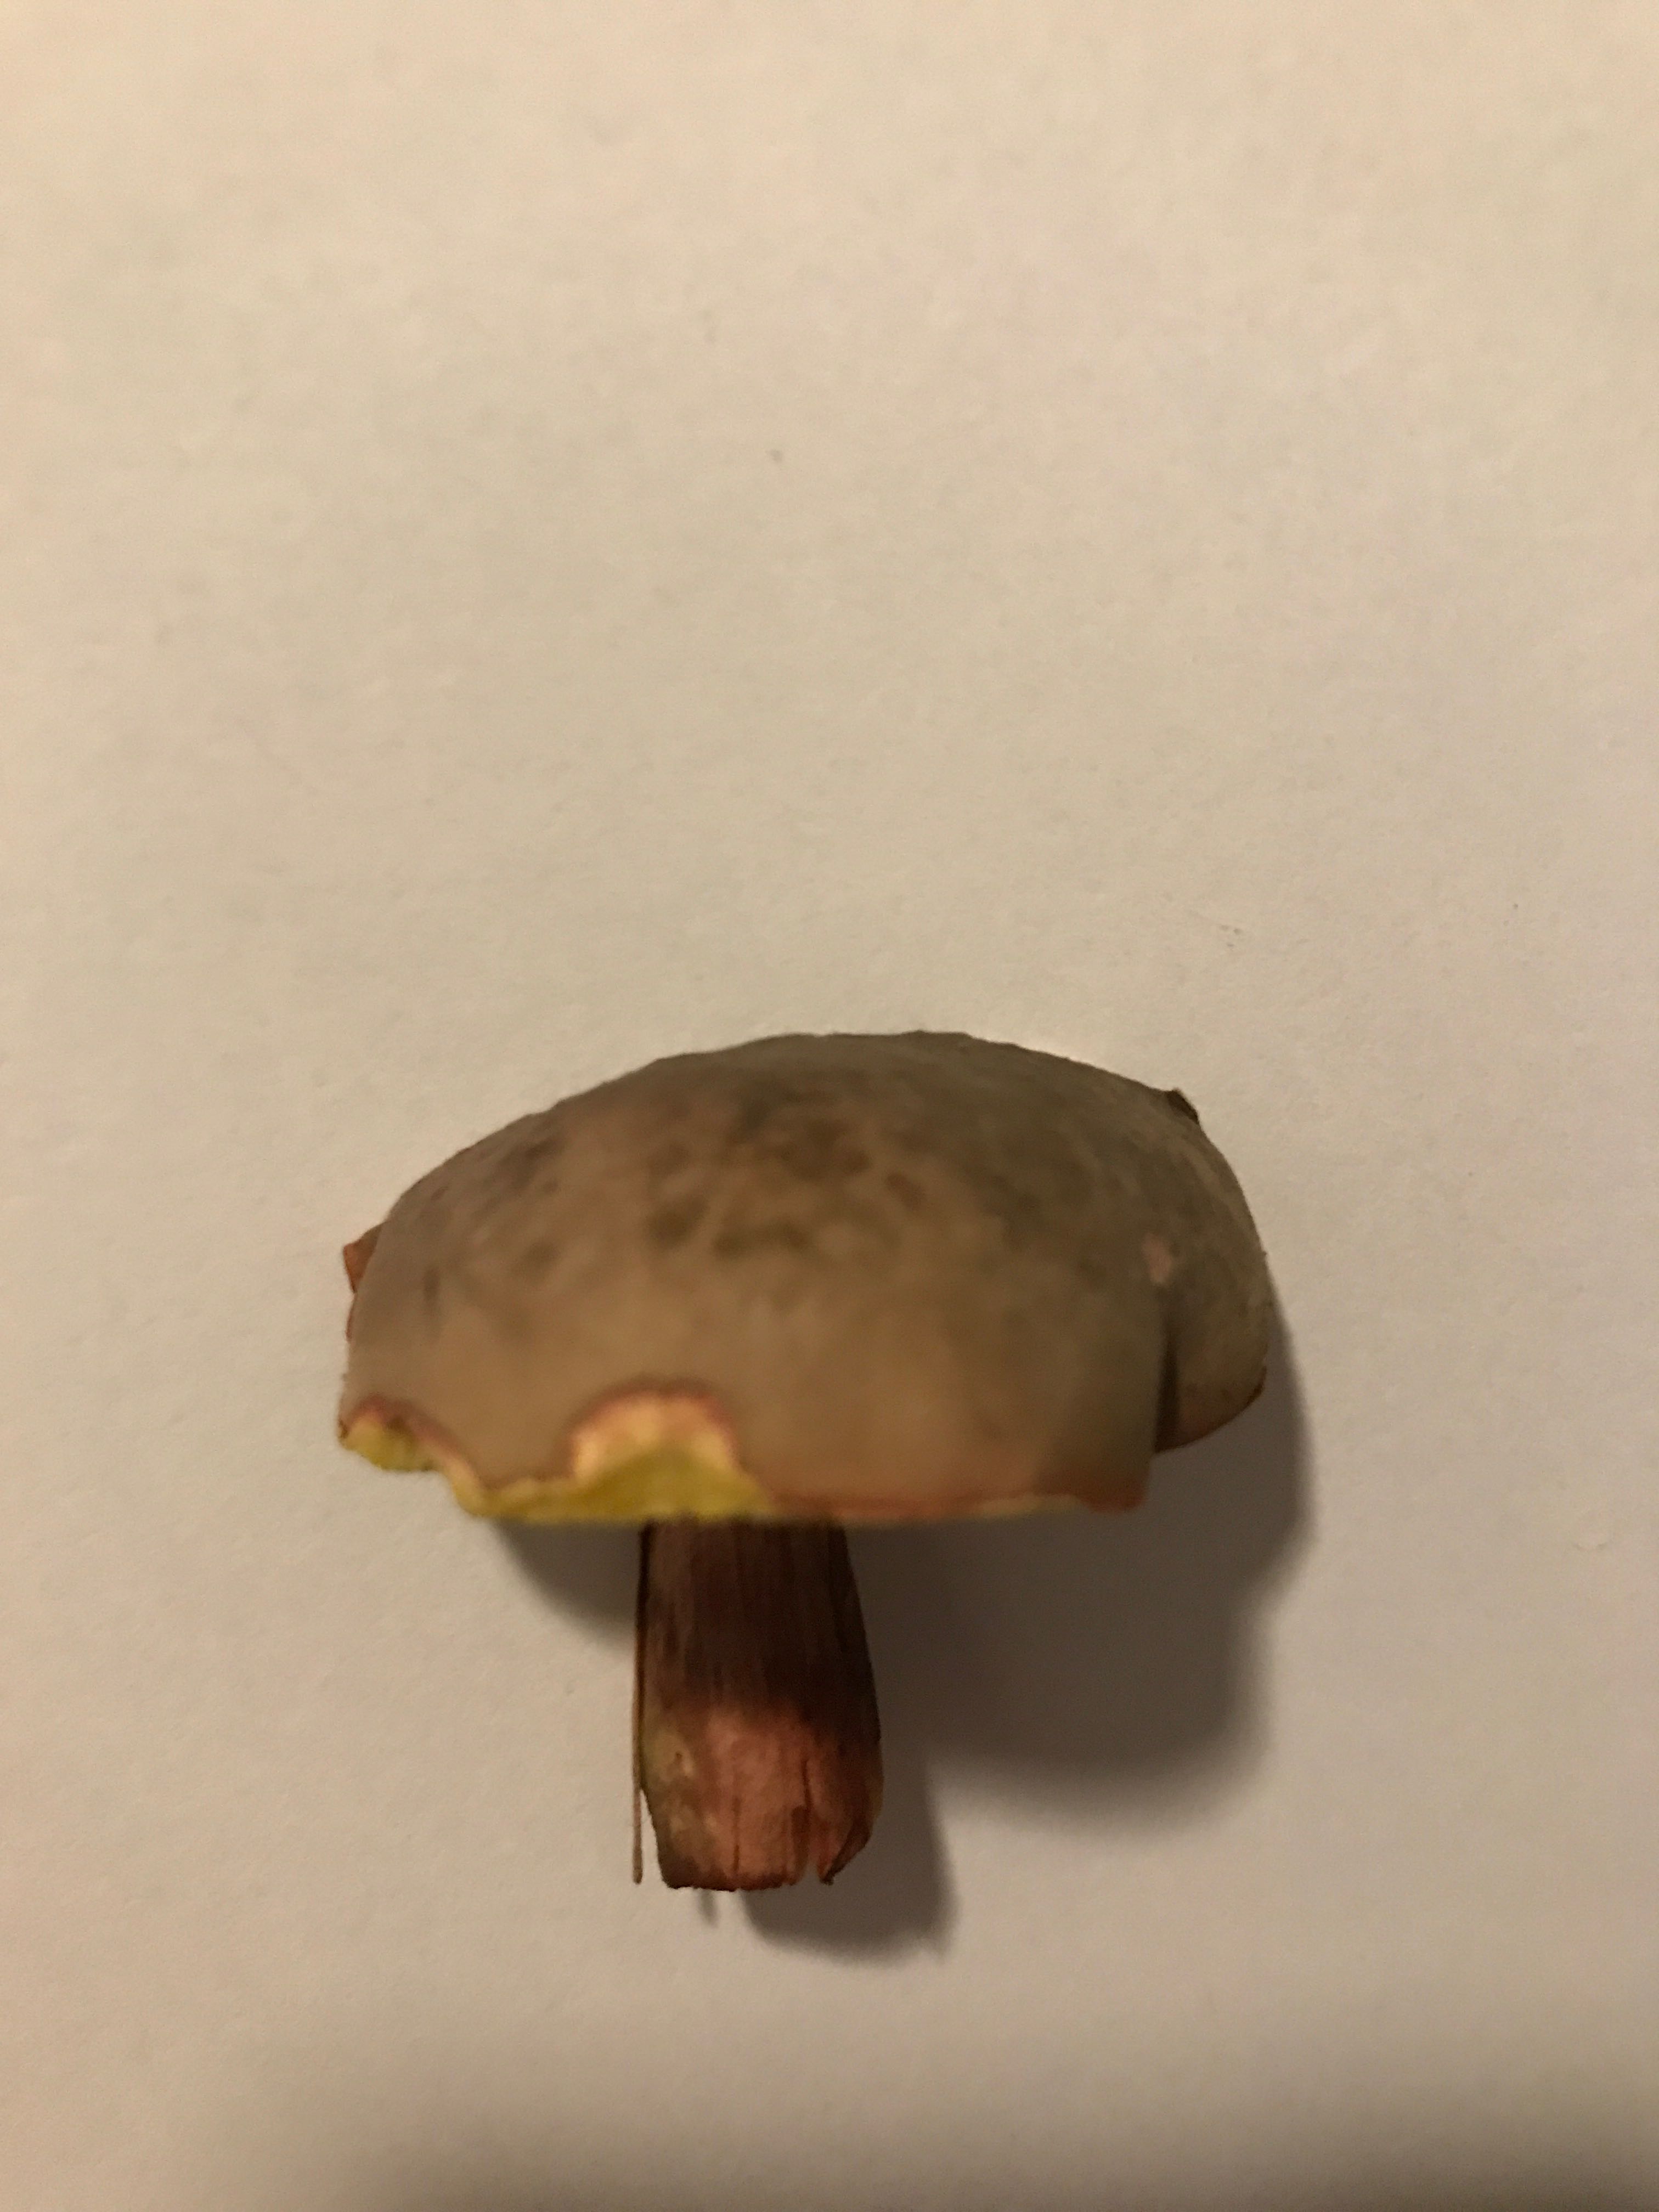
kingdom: Fungi
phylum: Basidiomycota
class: Agaricomycetes
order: Boletales
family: Boletaceae
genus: Xerocomellus
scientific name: Xerocomellus pruinatus
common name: dugget rørhat
